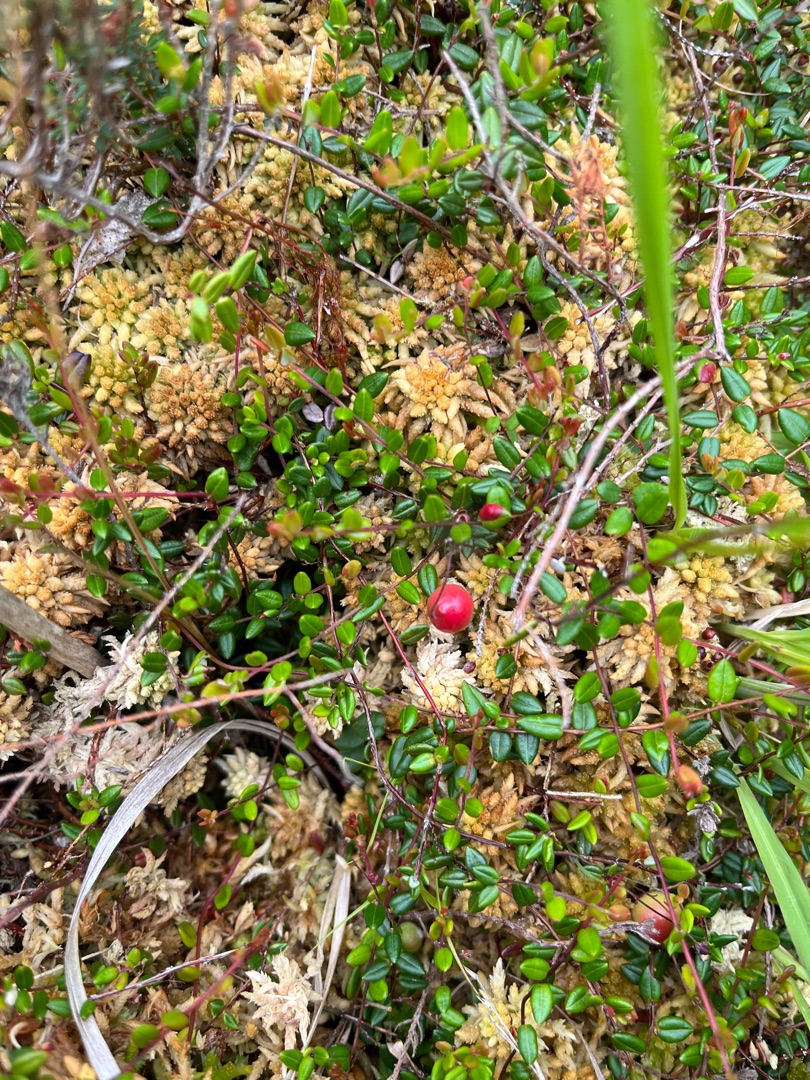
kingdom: Plantae
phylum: Tracheophyta
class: Magnoliopsida
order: Ericales
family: Ericaceae
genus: Vaccinium
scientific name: Vaccinium oxycoccos
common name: Tranebær
